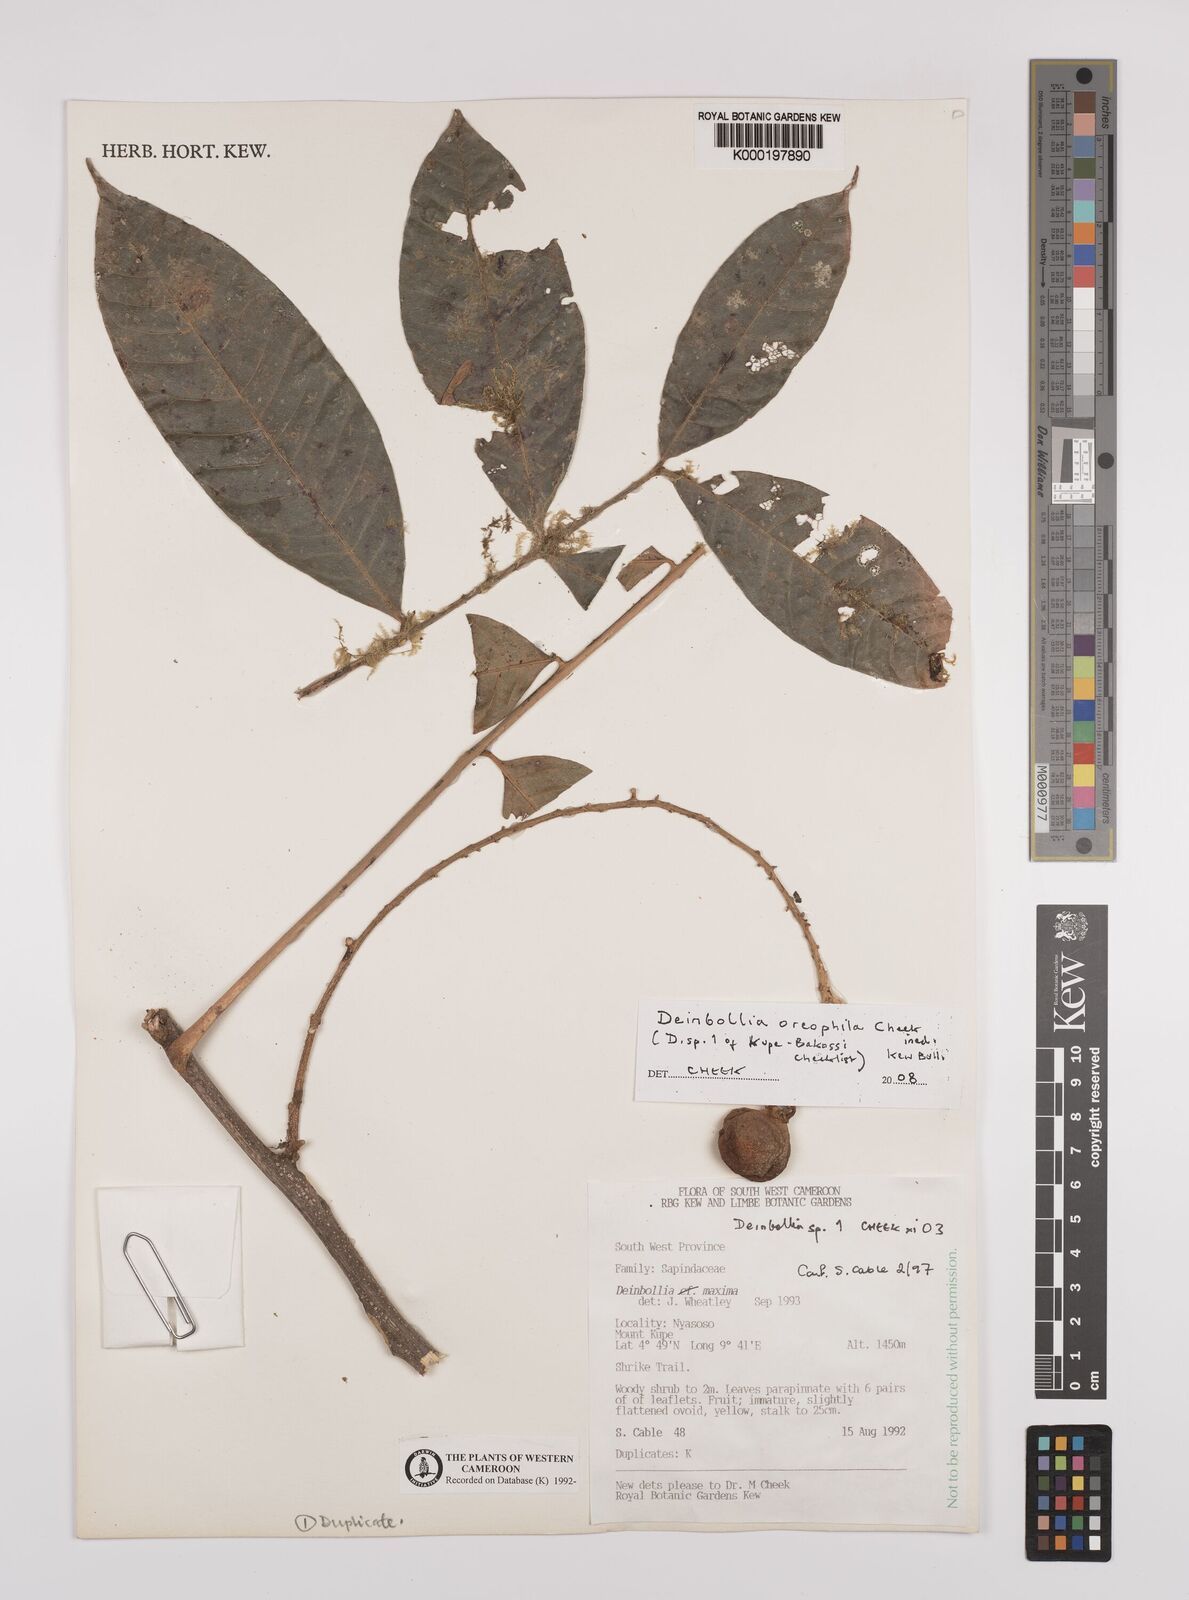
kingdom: Plantae
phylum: Tracheophyta
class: Magnoliopsida
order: Sapindales
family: Sapindaceae
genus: Deinbollia
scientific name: Deinbollia oreophila
